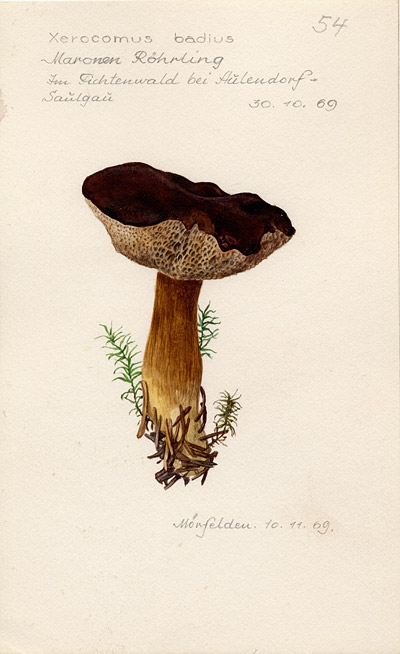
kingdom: Fungi
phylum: Basidiomycota
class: Agaricomycetes
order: Boletales
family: Boletaceae
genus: Imleria
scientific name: Imleria badia
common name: Bay bolete
